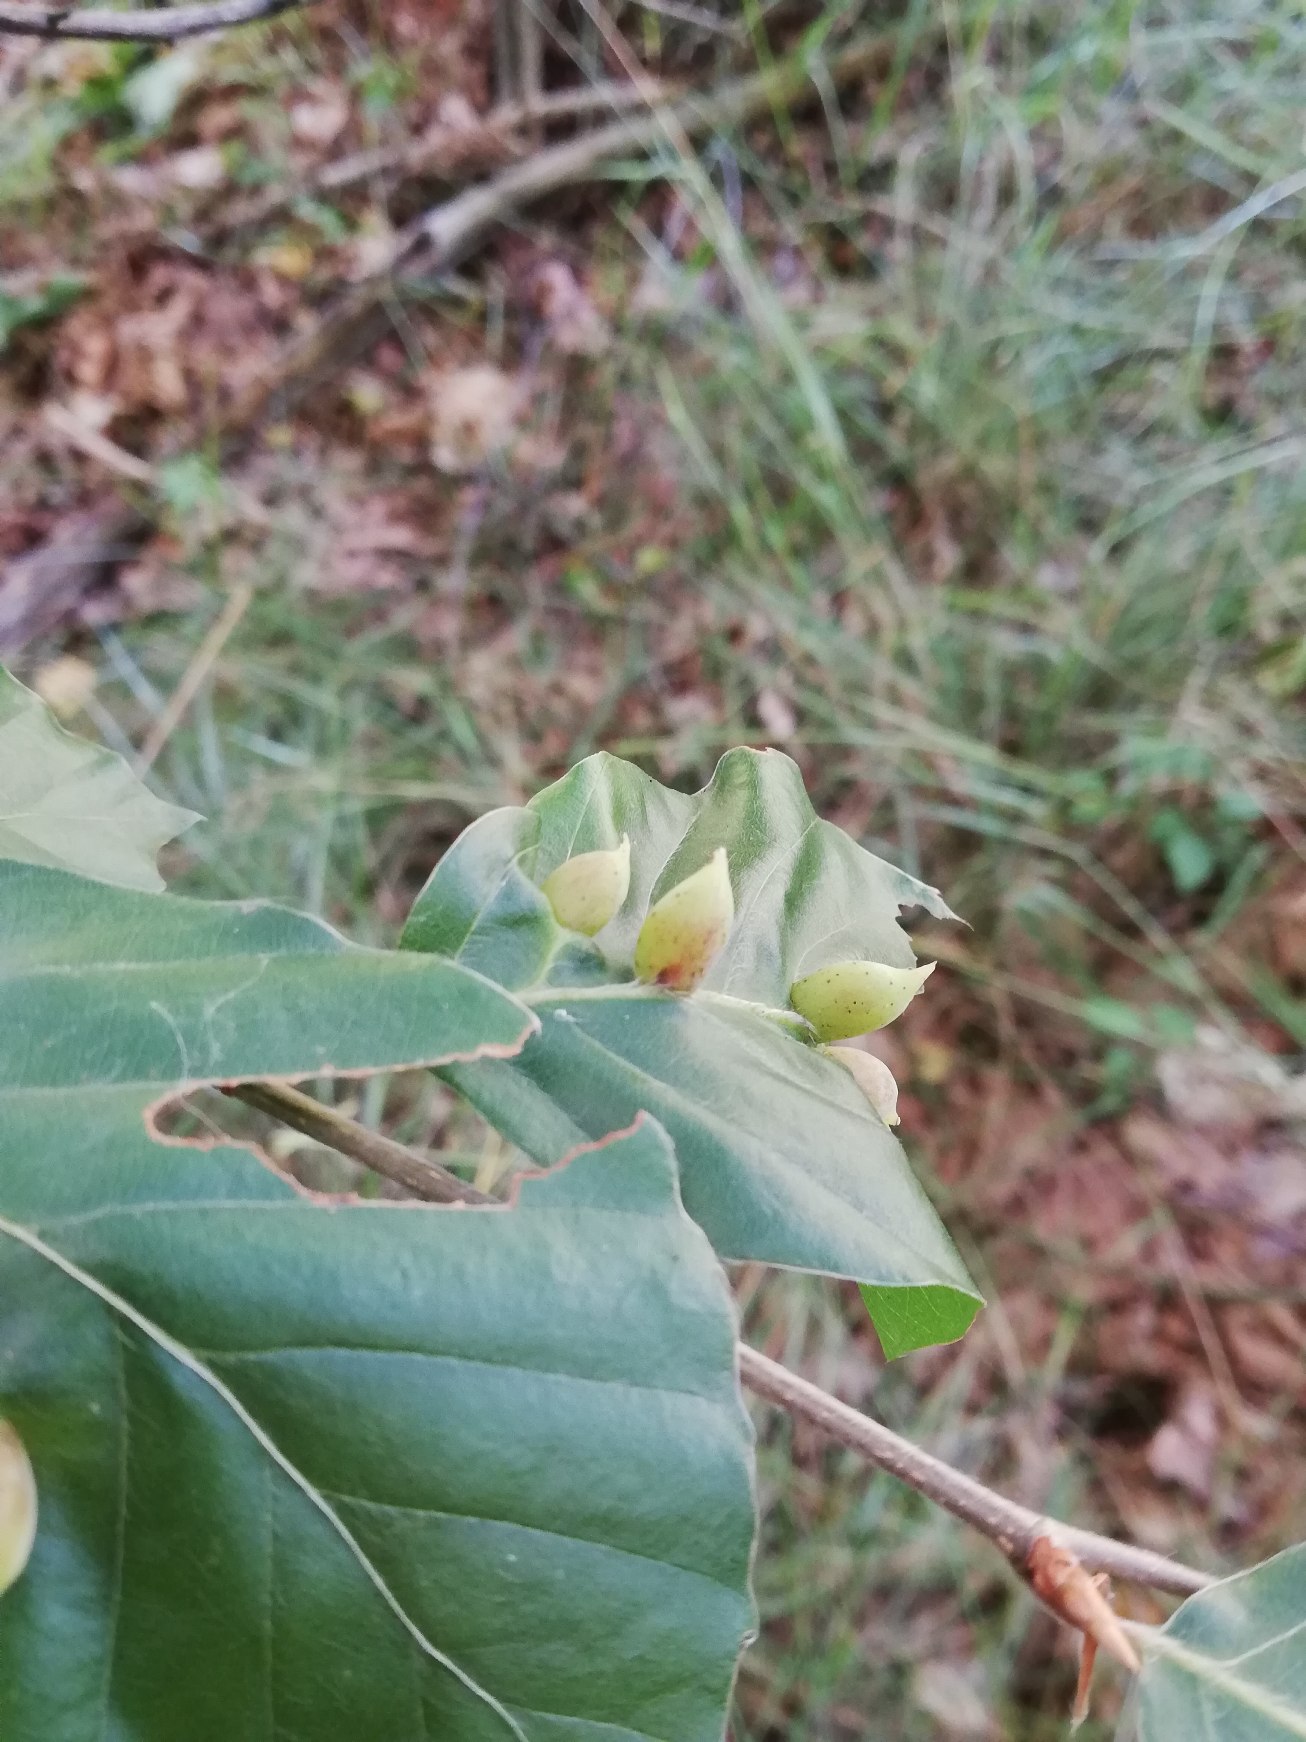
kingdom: Animalia
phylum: Arthropoda
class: Insecta
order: Diptera
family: Cecidomyiidae
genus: Mikiola
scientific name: Mikiola fagi
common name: Bøgegalmyg
